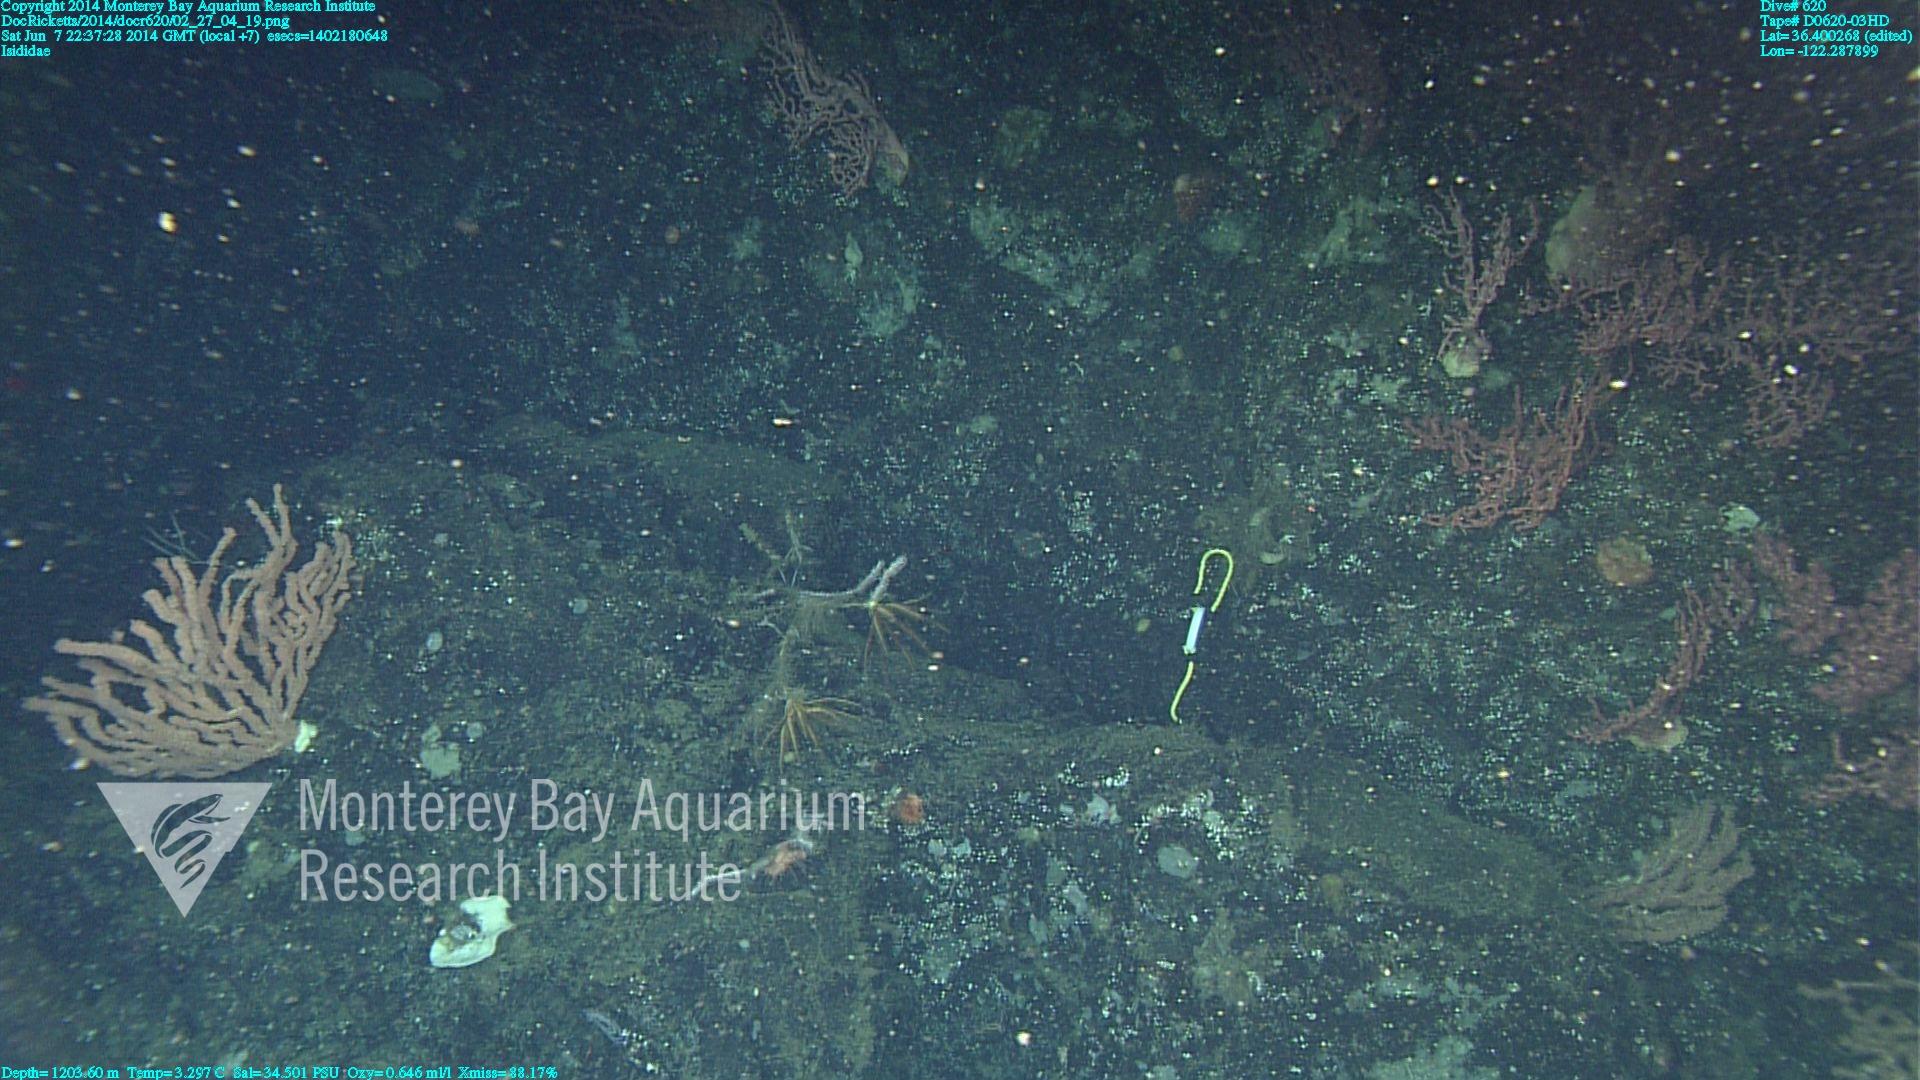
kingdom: Animalia
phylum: Cnidaria
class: Anthozoa
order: Scleralcyonacea
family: Keratoisididae
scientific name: Keratoisididae
